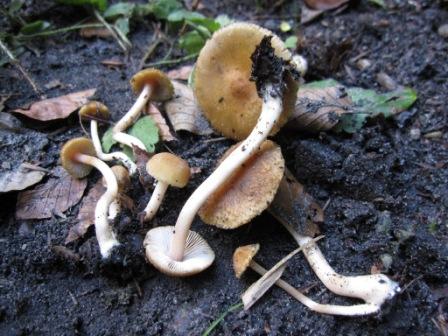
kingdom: Fungi
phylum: Basidiomycota
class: Agaricomycetes
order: Agaricales
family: Inocybaceae
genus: Inocybe
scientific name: Inocybe hirtella
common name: mandel-trævlhat
